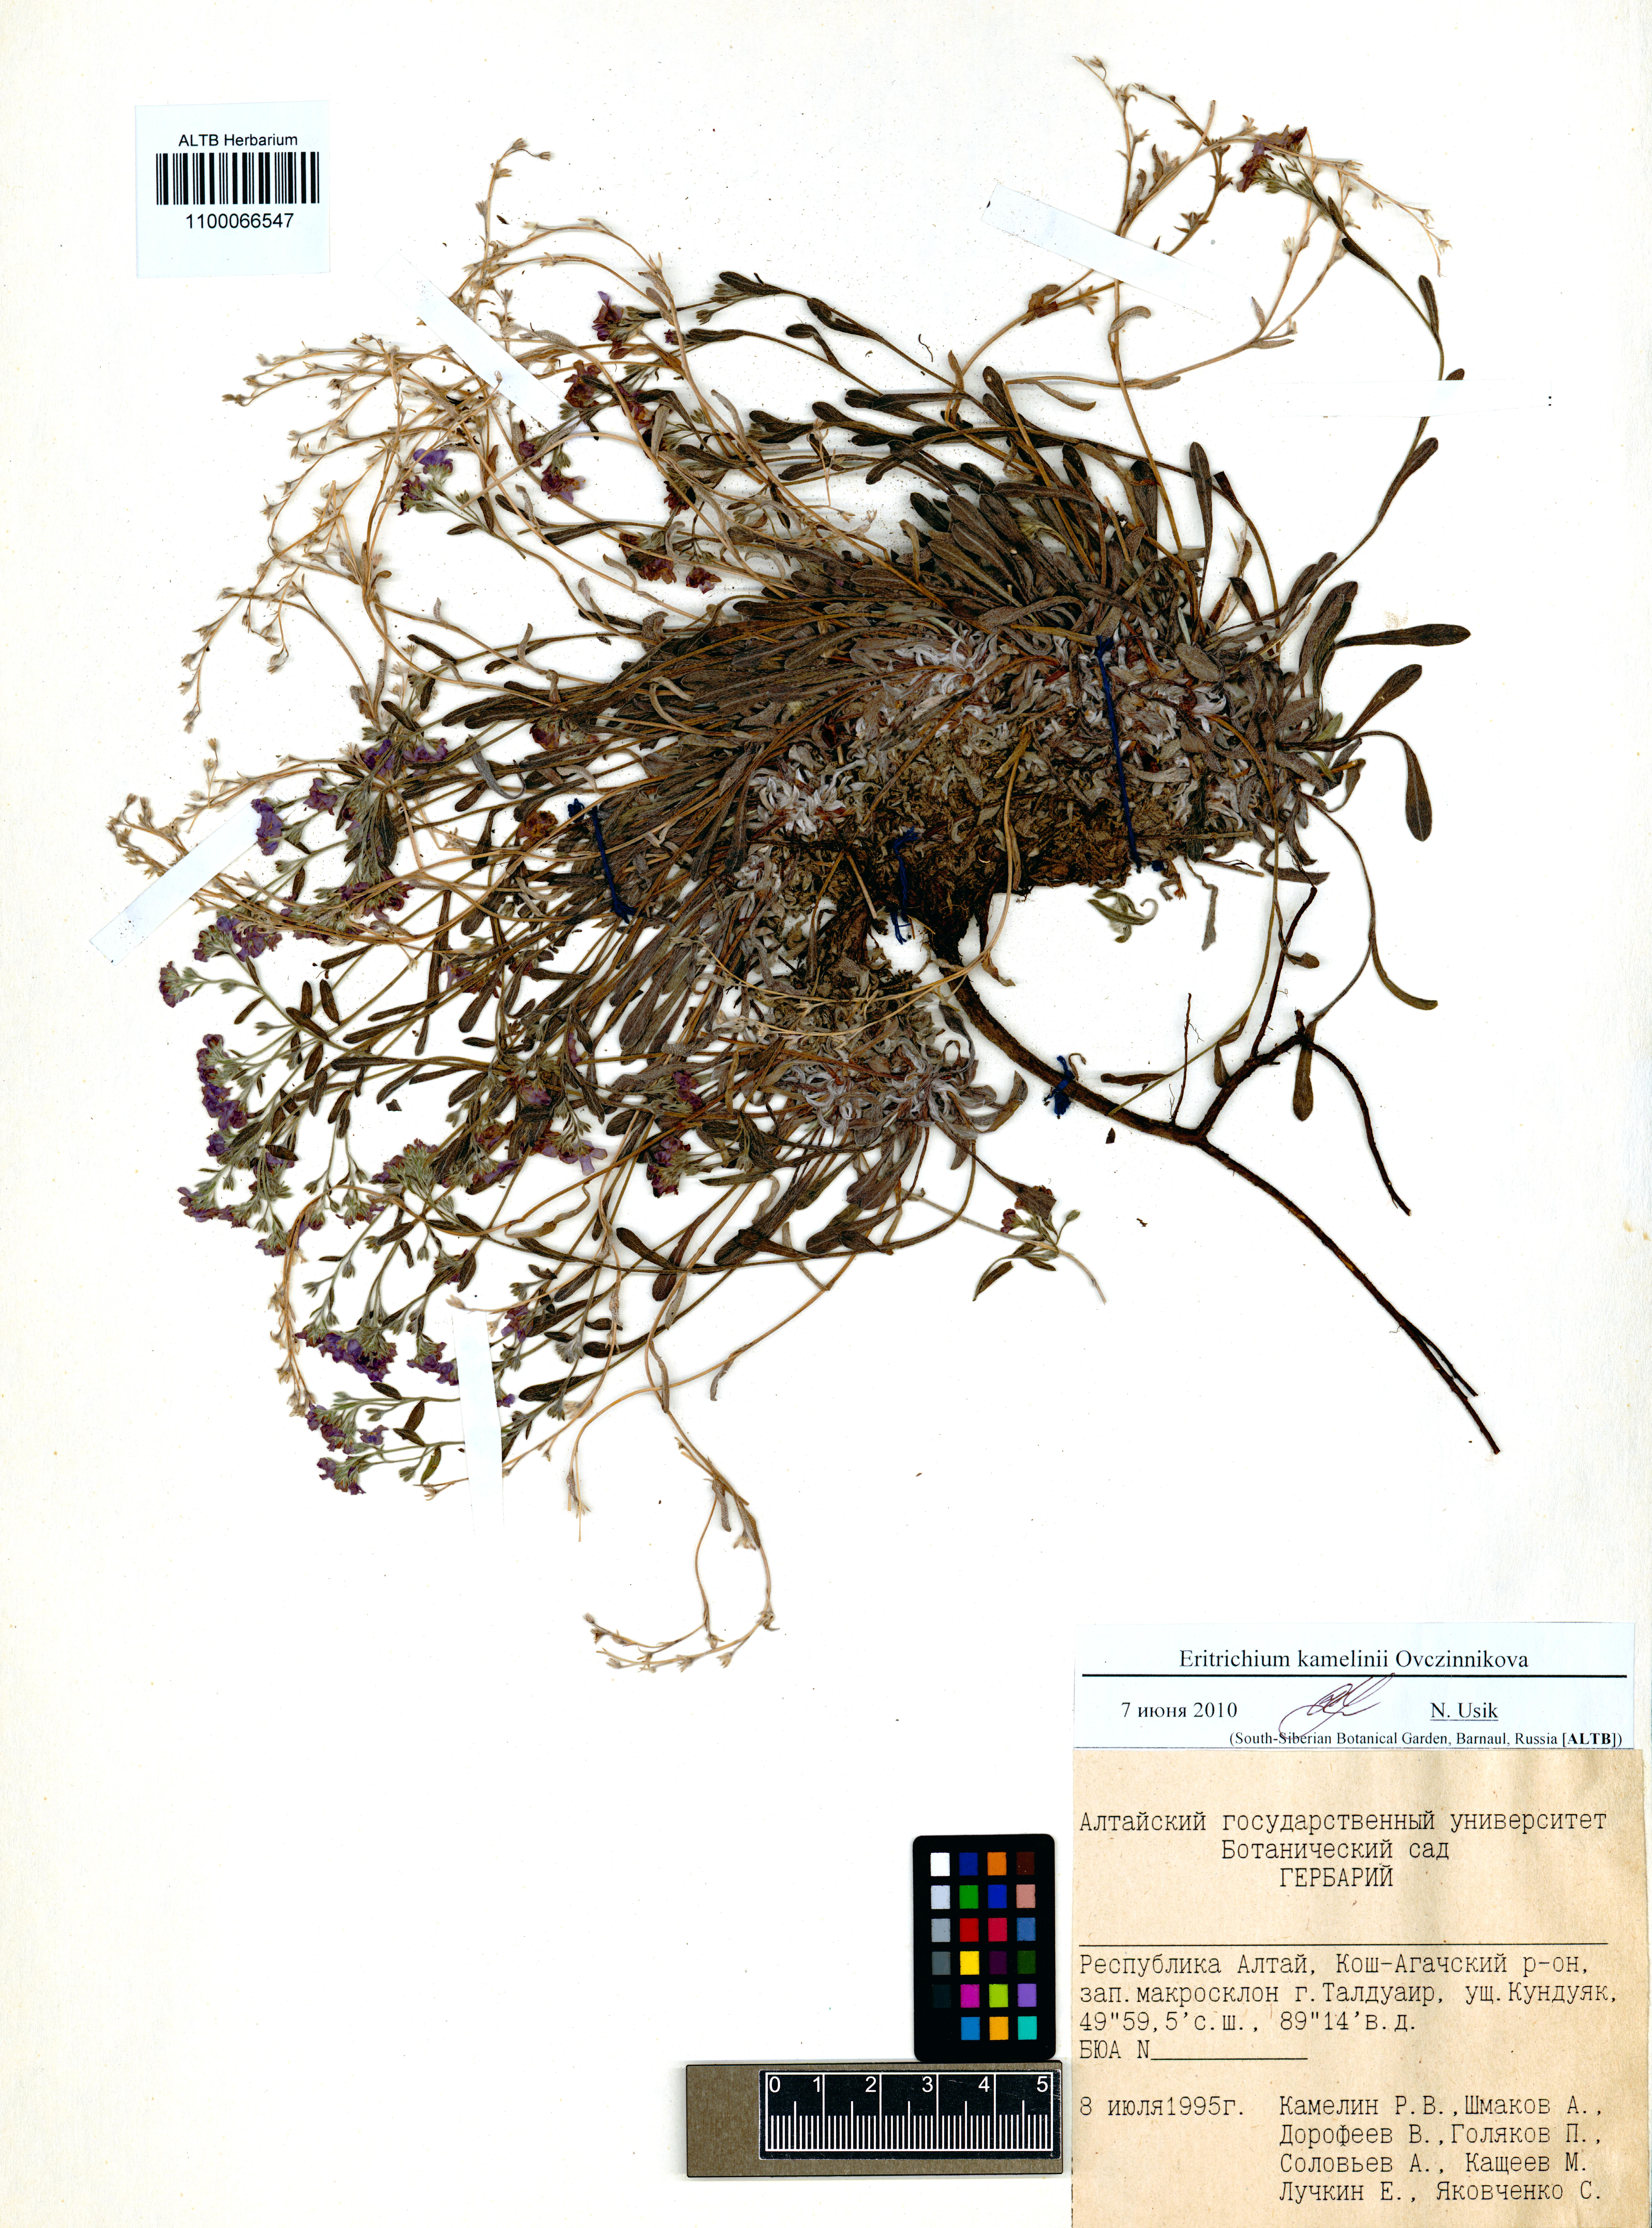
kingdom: Plantae
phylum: Tracheophyta
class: Magnoliopsida
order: Boraginales
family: Boraginaceae
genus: Eritrichium
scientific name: Eritrichium kamelinii
